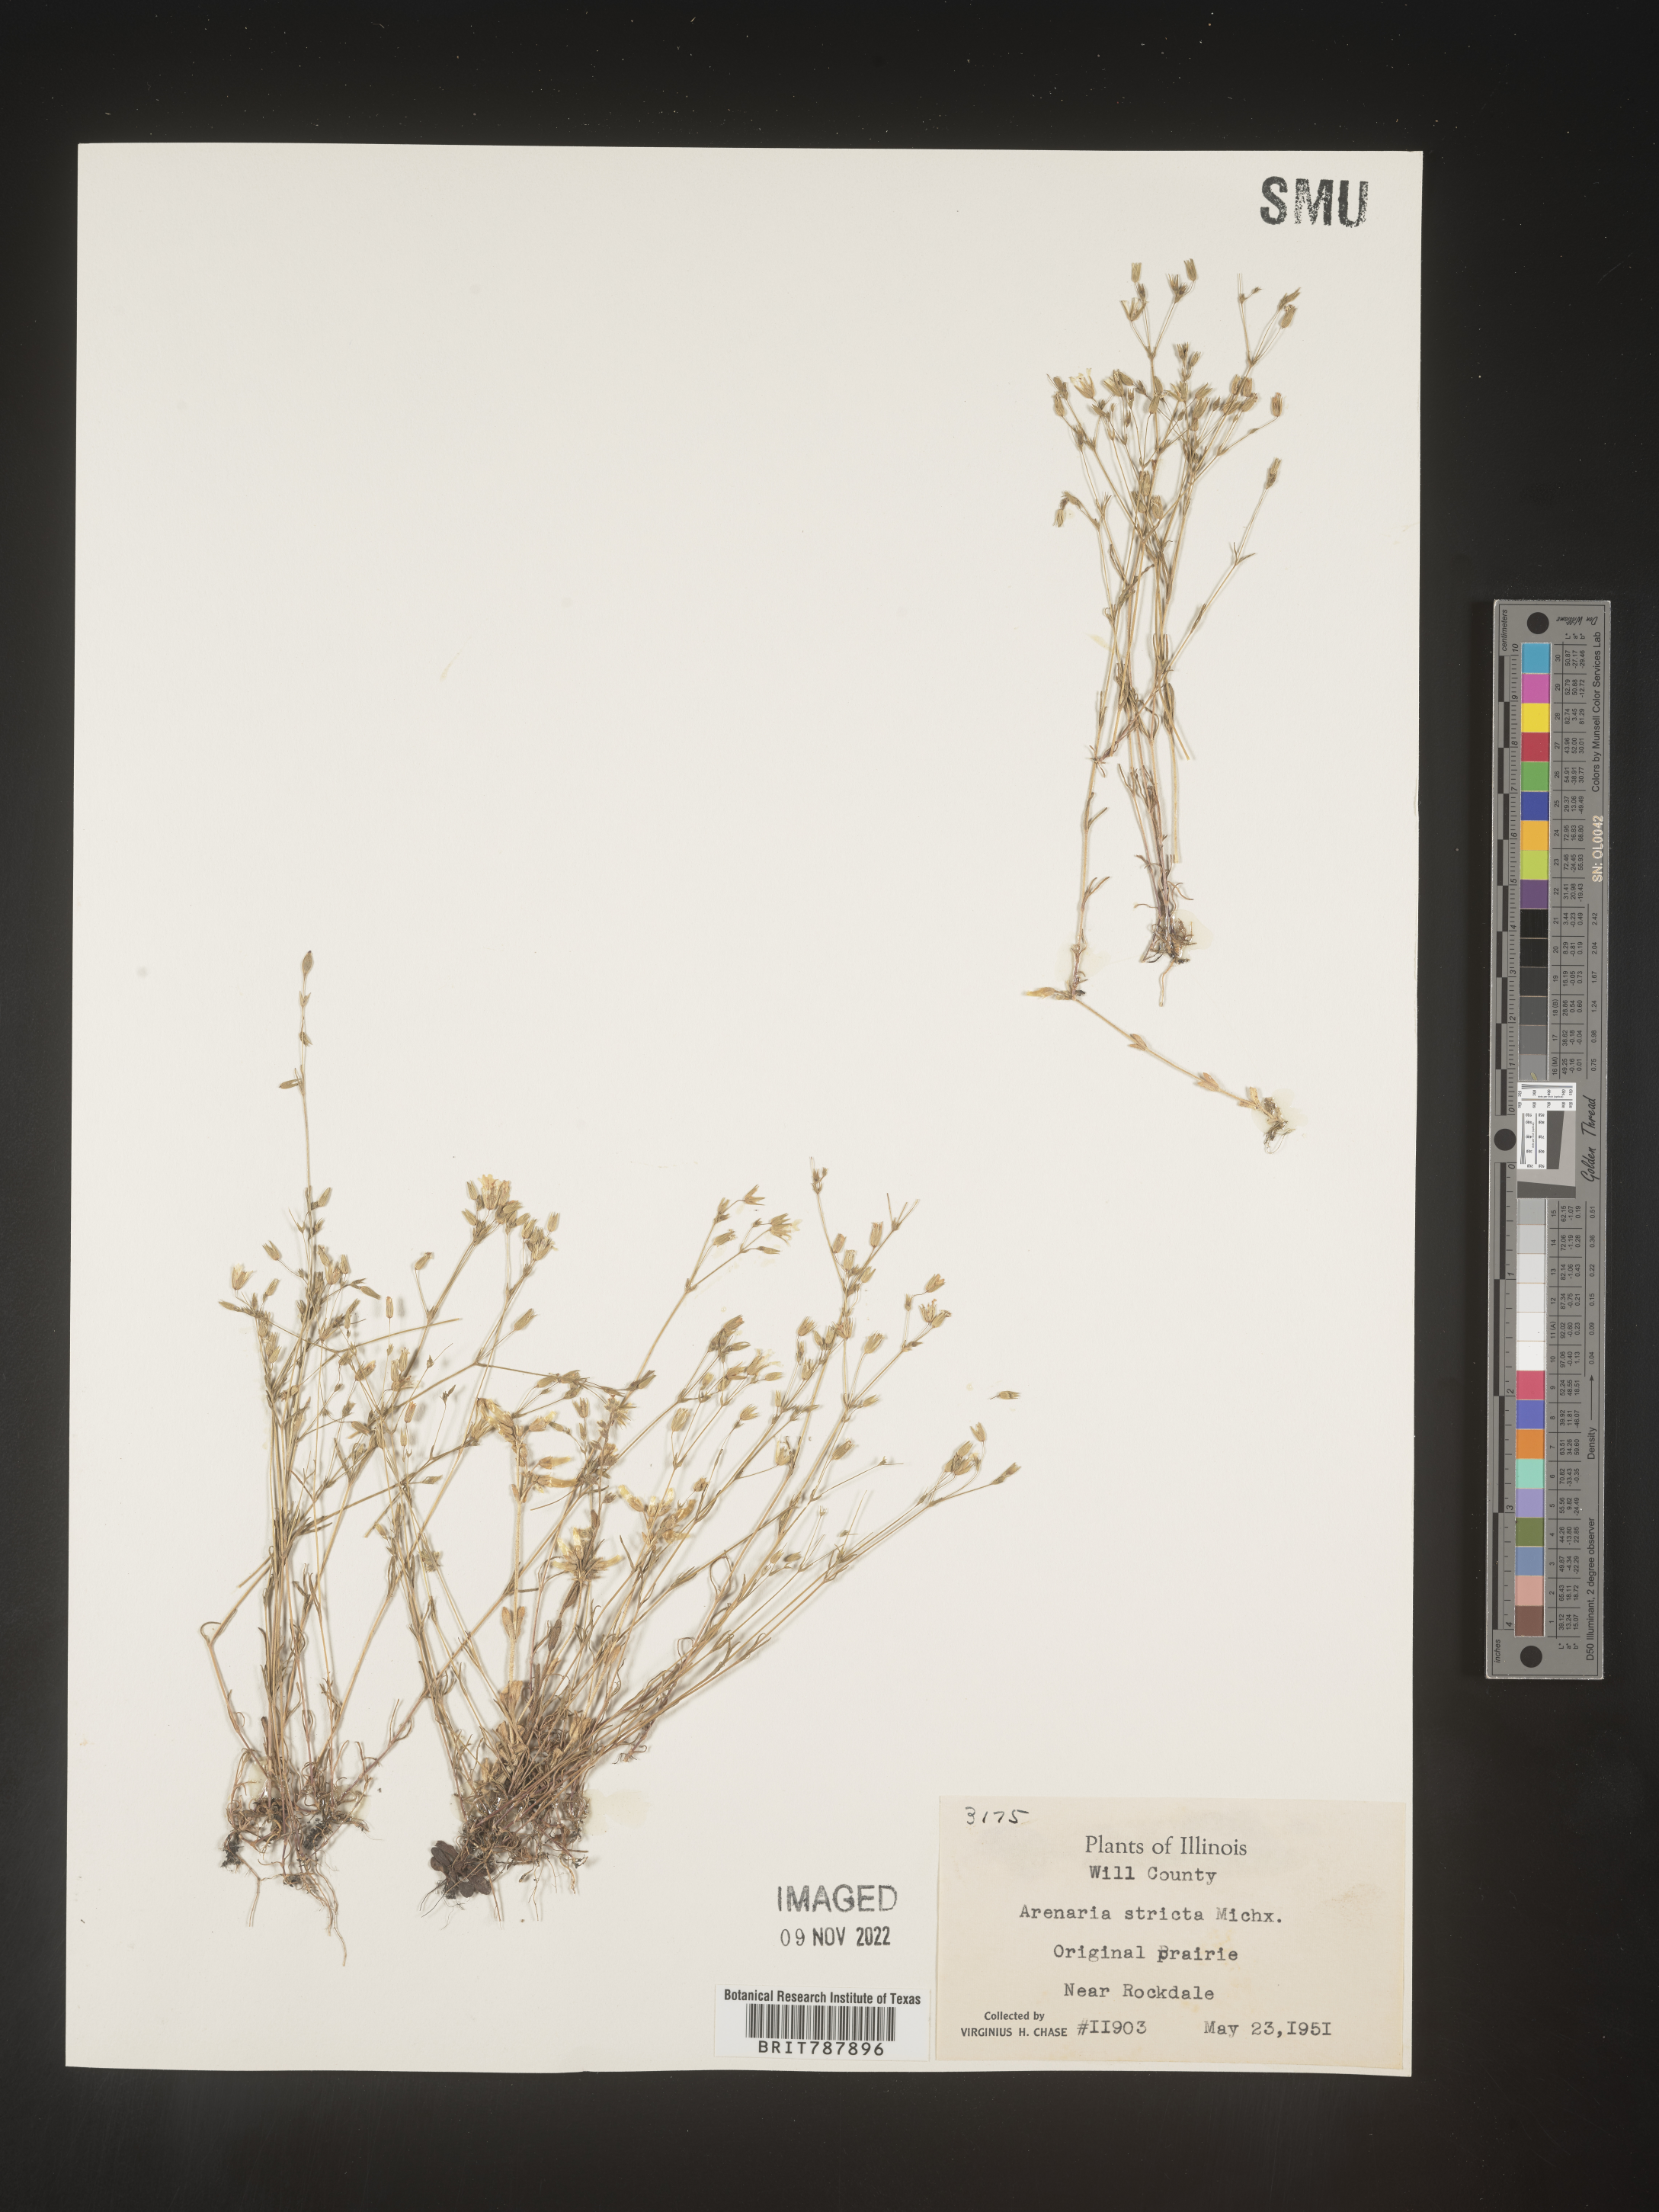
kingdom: Plantae
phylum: Tracheophyta
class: Magnoliopsida
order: Caryophyllales
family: Caryophyllaceae
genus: Sabulina
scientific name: Sabulina michauxii
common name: Michaux's stitchwort
